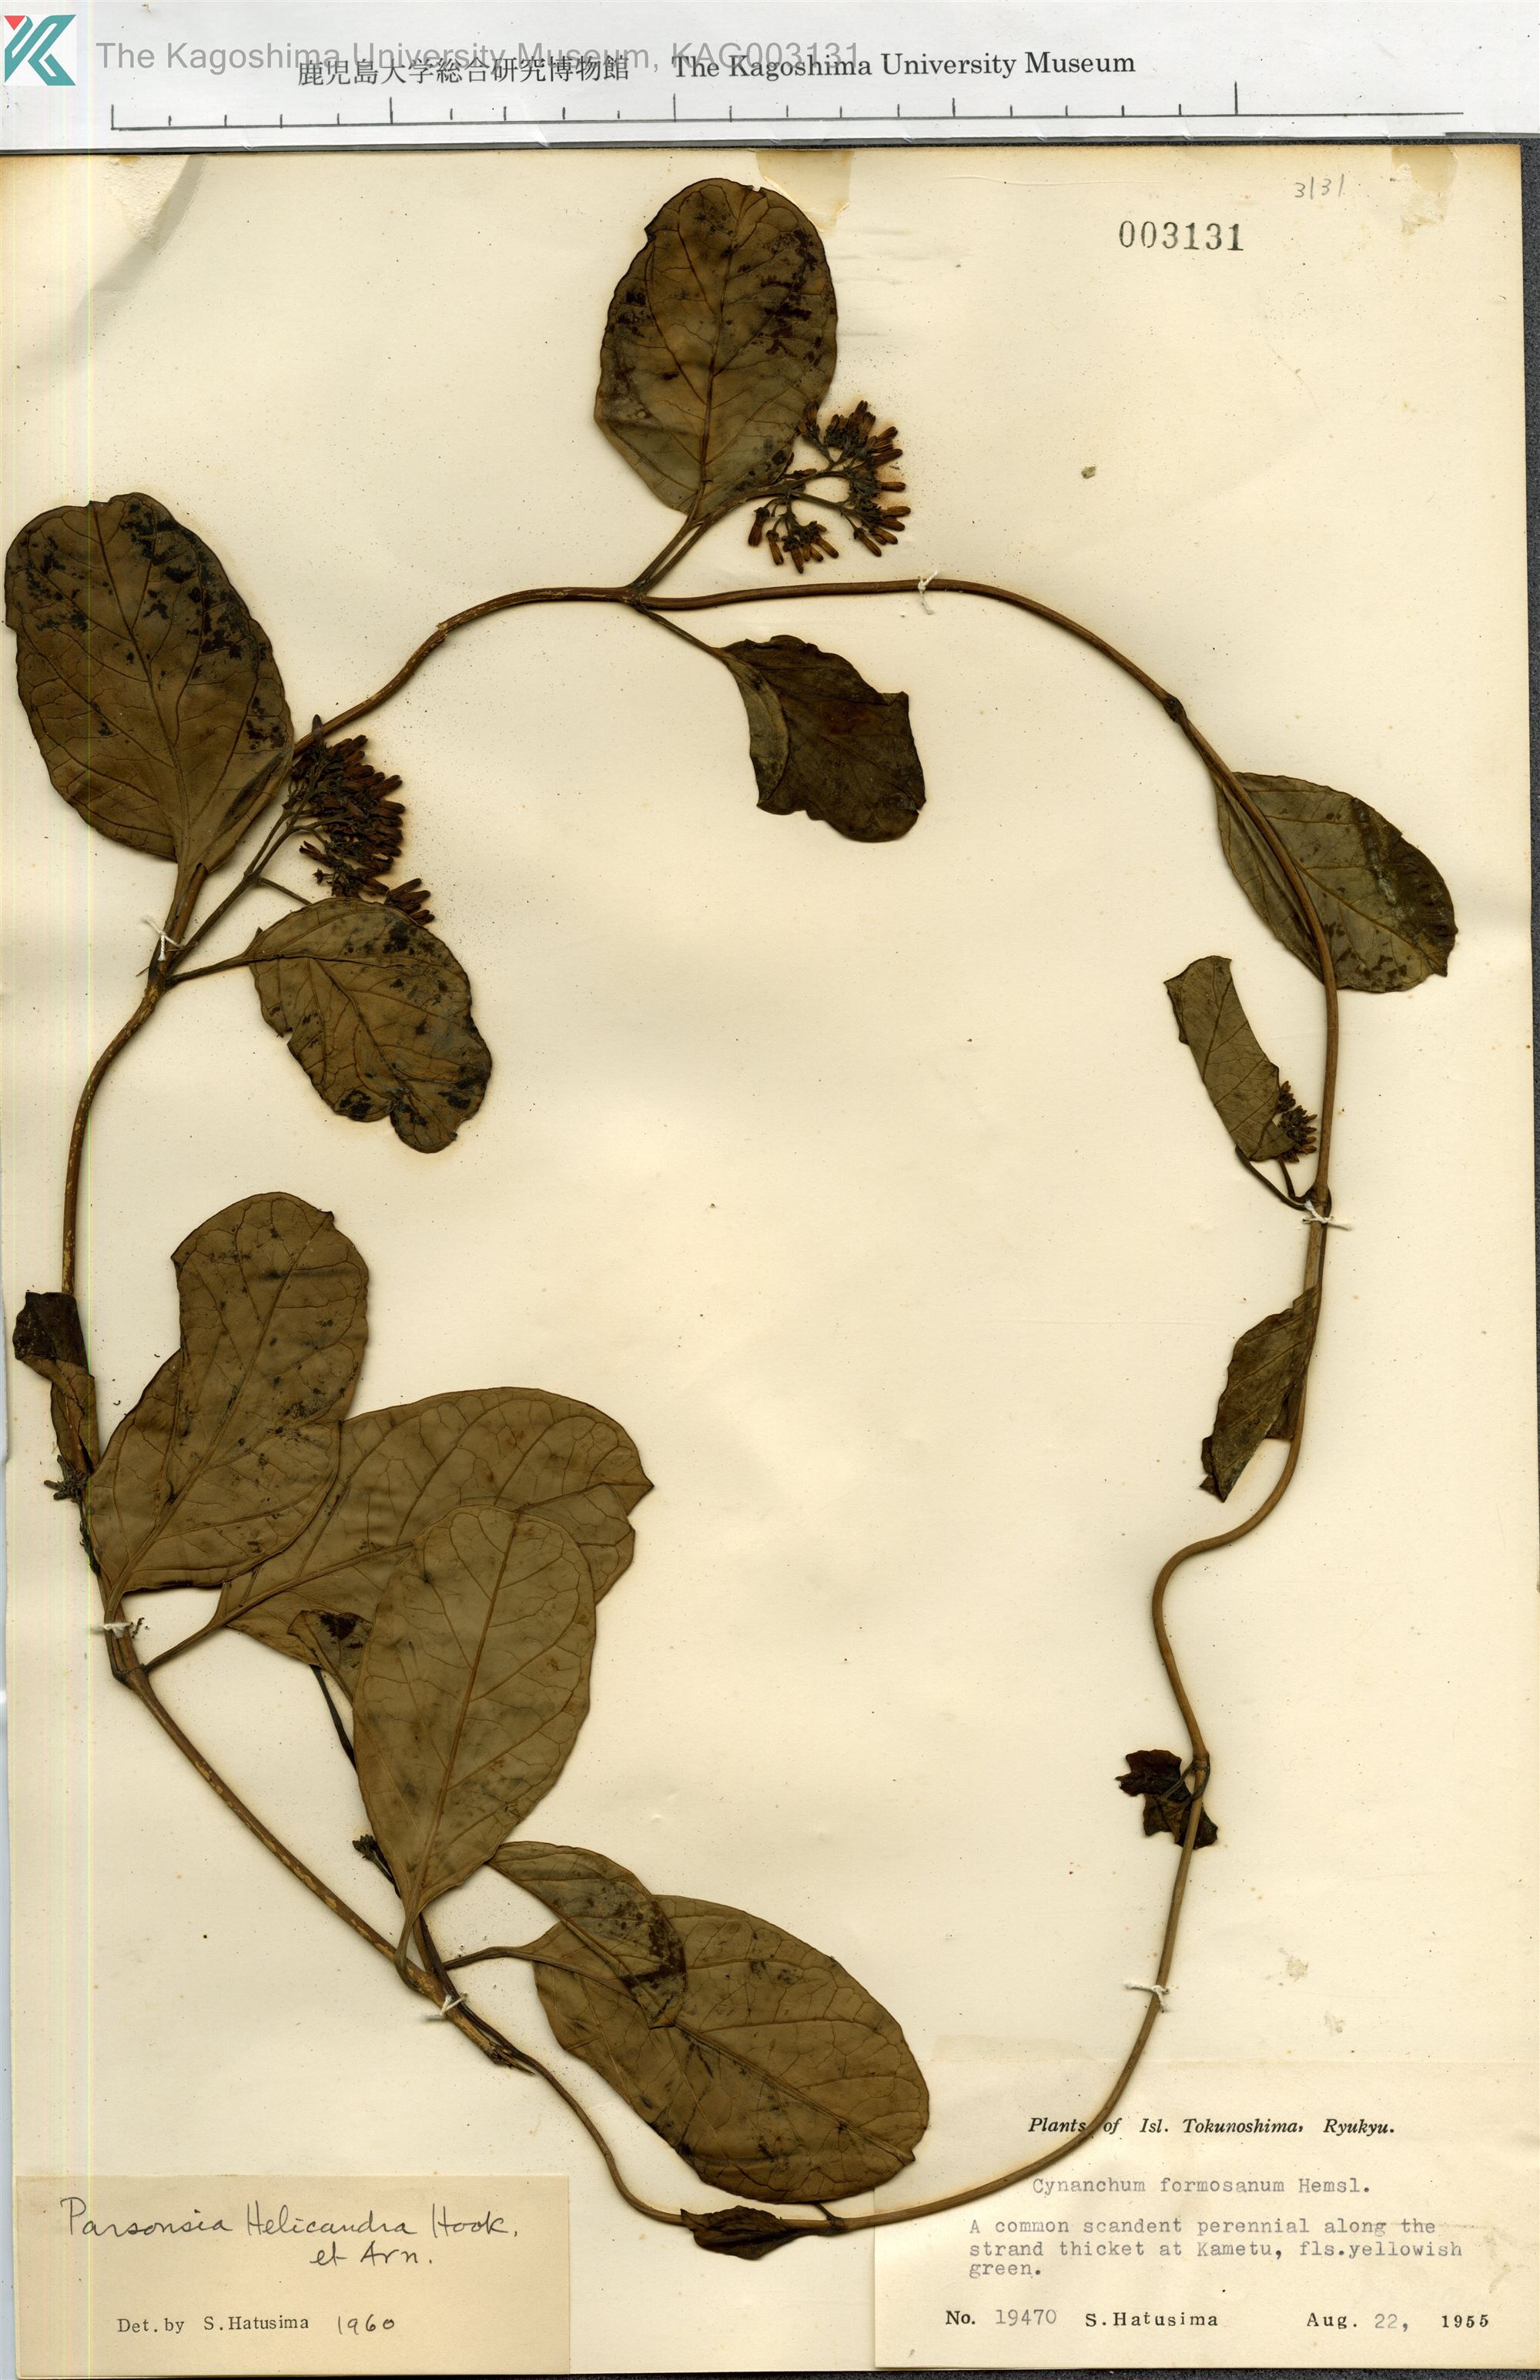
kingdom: Plantae
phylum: Tracheophyta
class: Magnoliopsida
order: Gentianales
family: Apocynaceae
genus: Parsonsia
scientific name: Parsonsia alboflavescens
